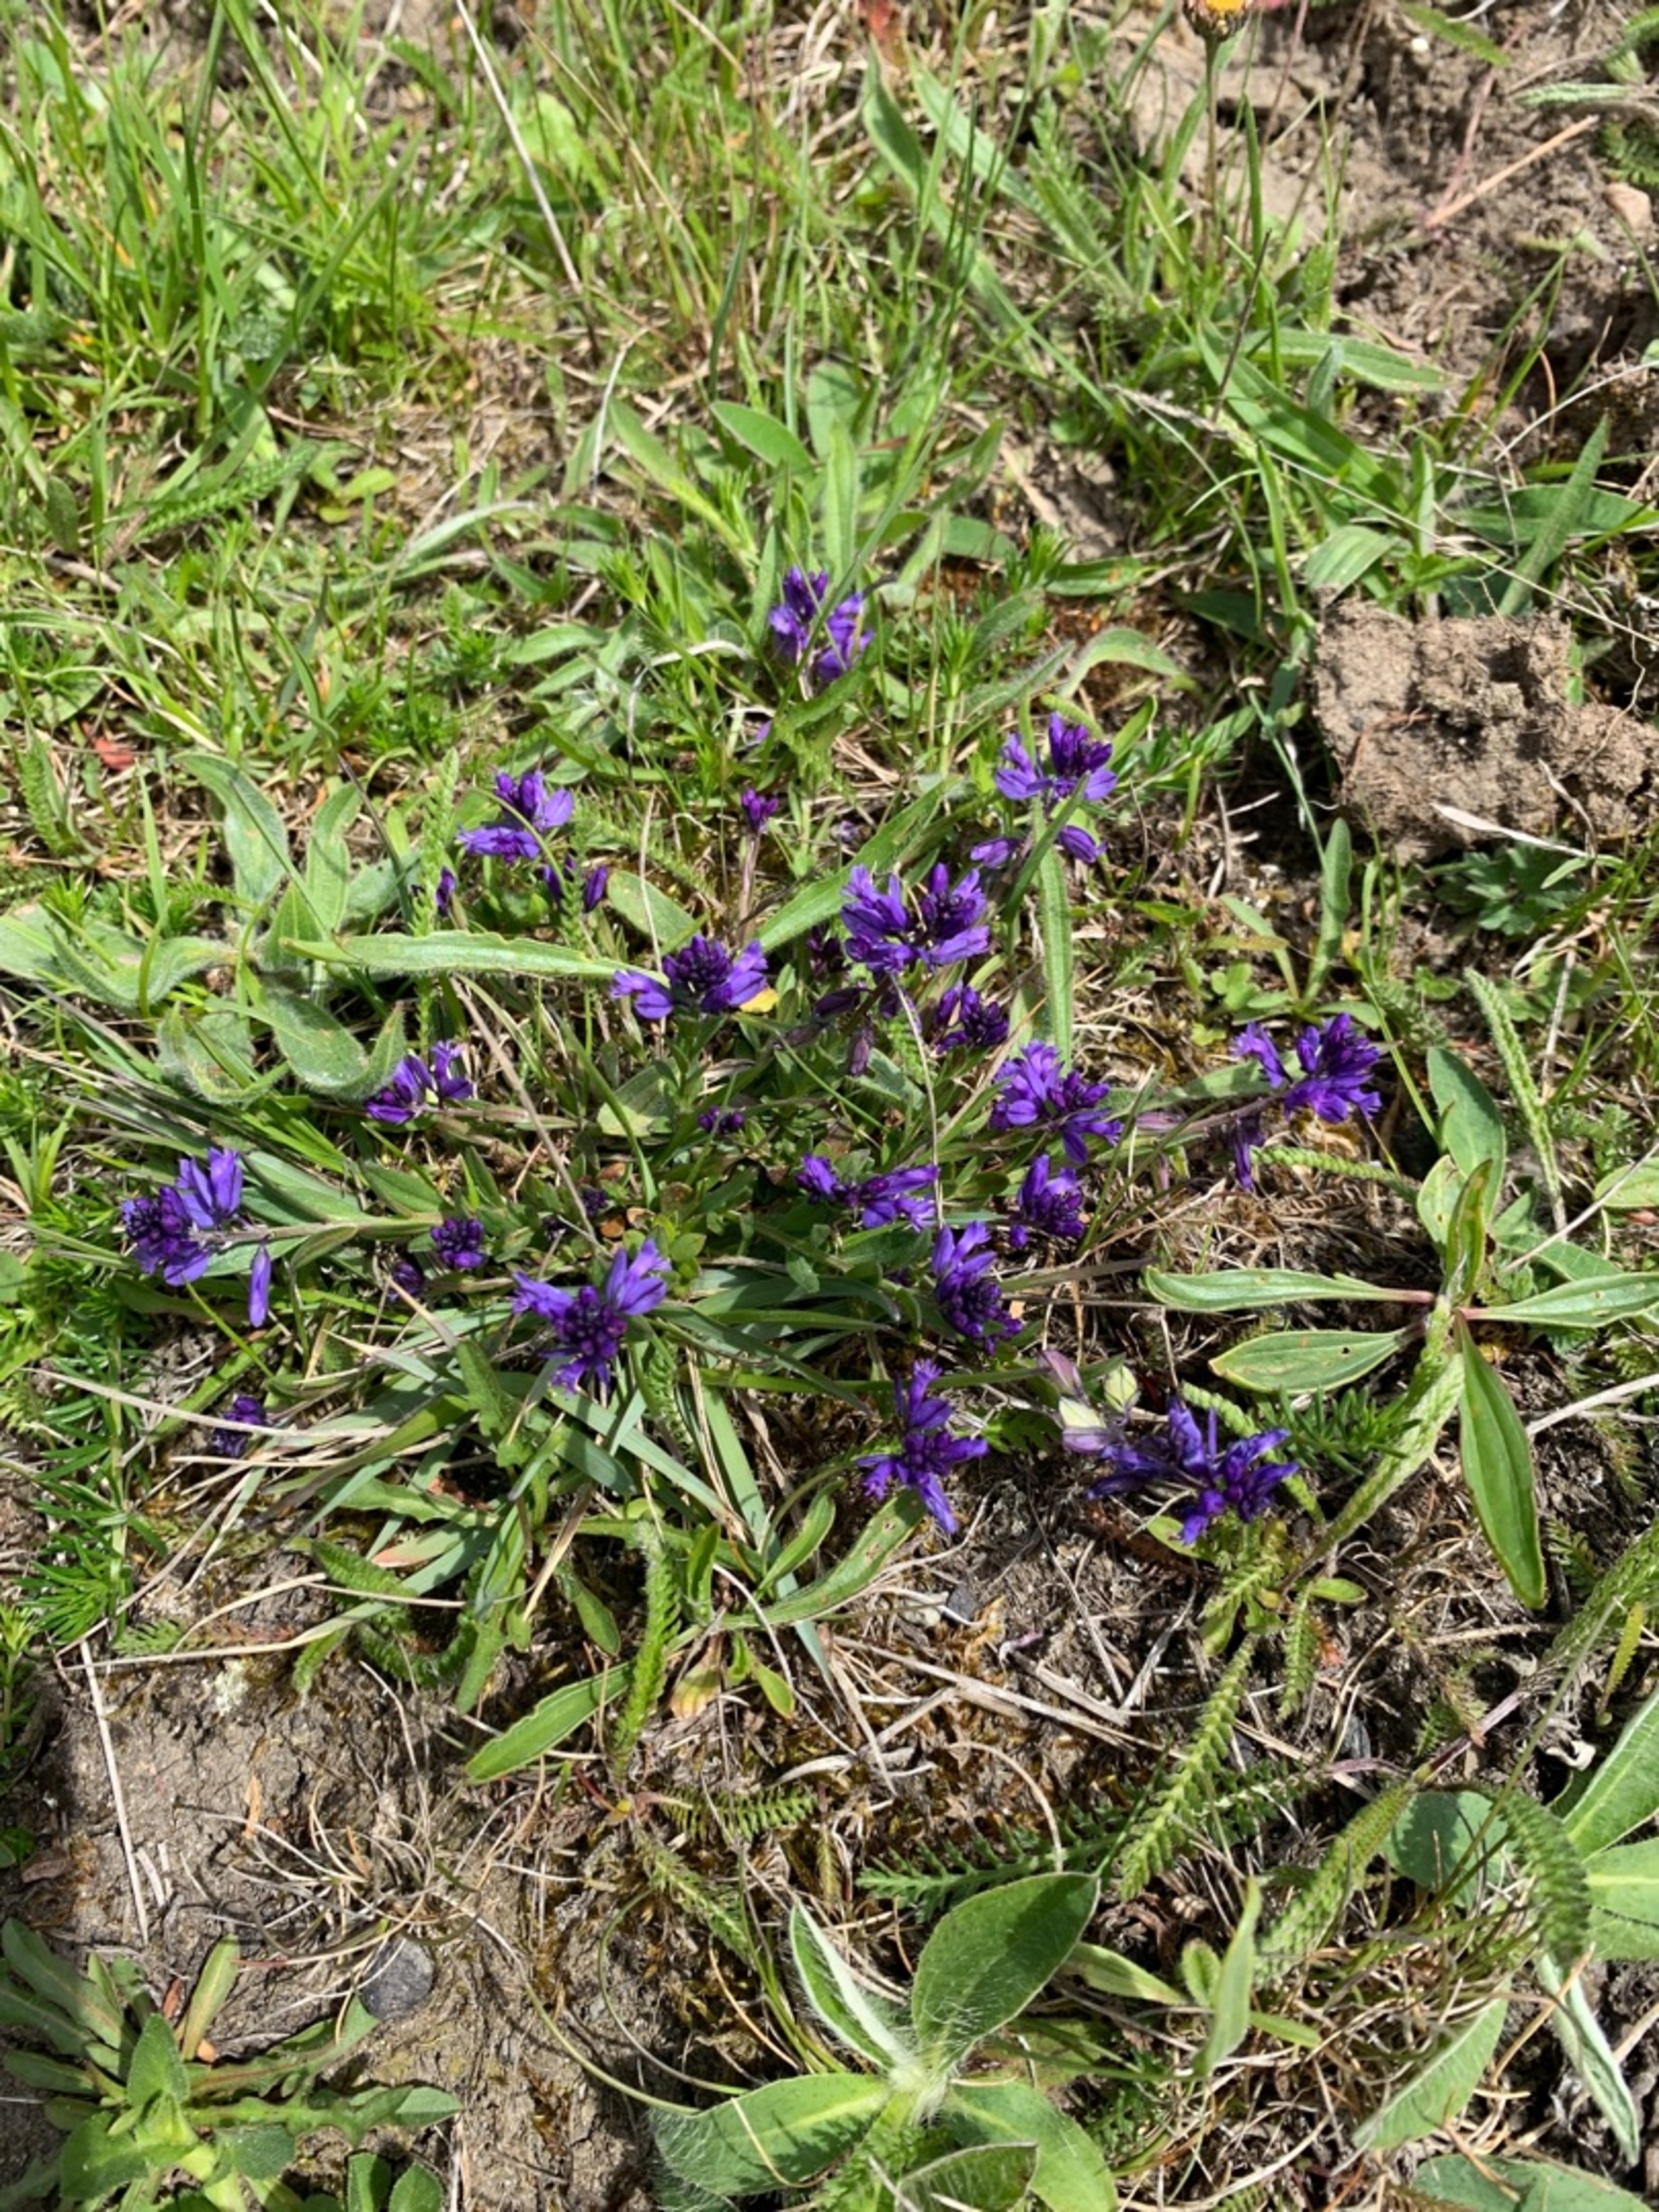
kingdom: Plantae
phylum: Tracheophyta
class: Magnoliopsida
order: Fabales
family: Polygalaceae
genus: Polygala
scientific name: Polygala vulgaris
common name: Almindelig mælkeurt
